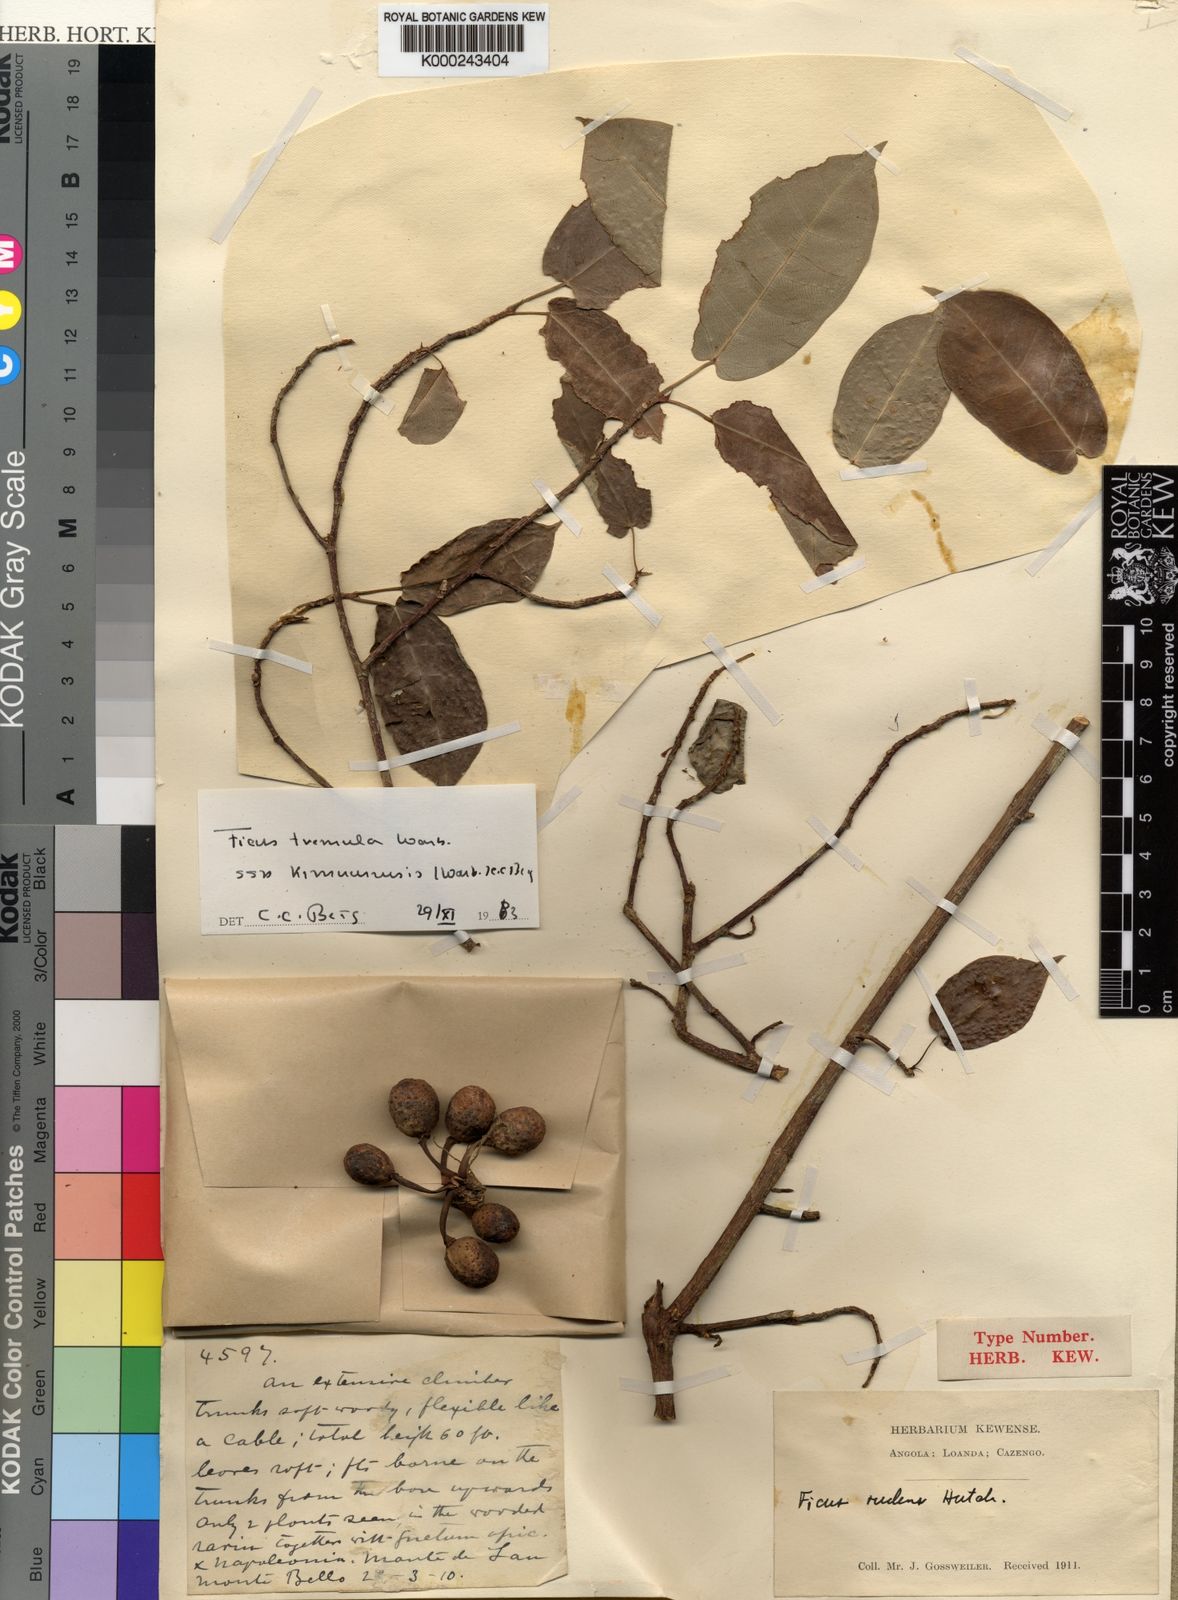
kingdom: Plantae
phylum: Tracheophyta
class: Magnoliopsida
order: Rosales
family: Moraceae
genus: Ficus
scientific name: Ficus tremula
